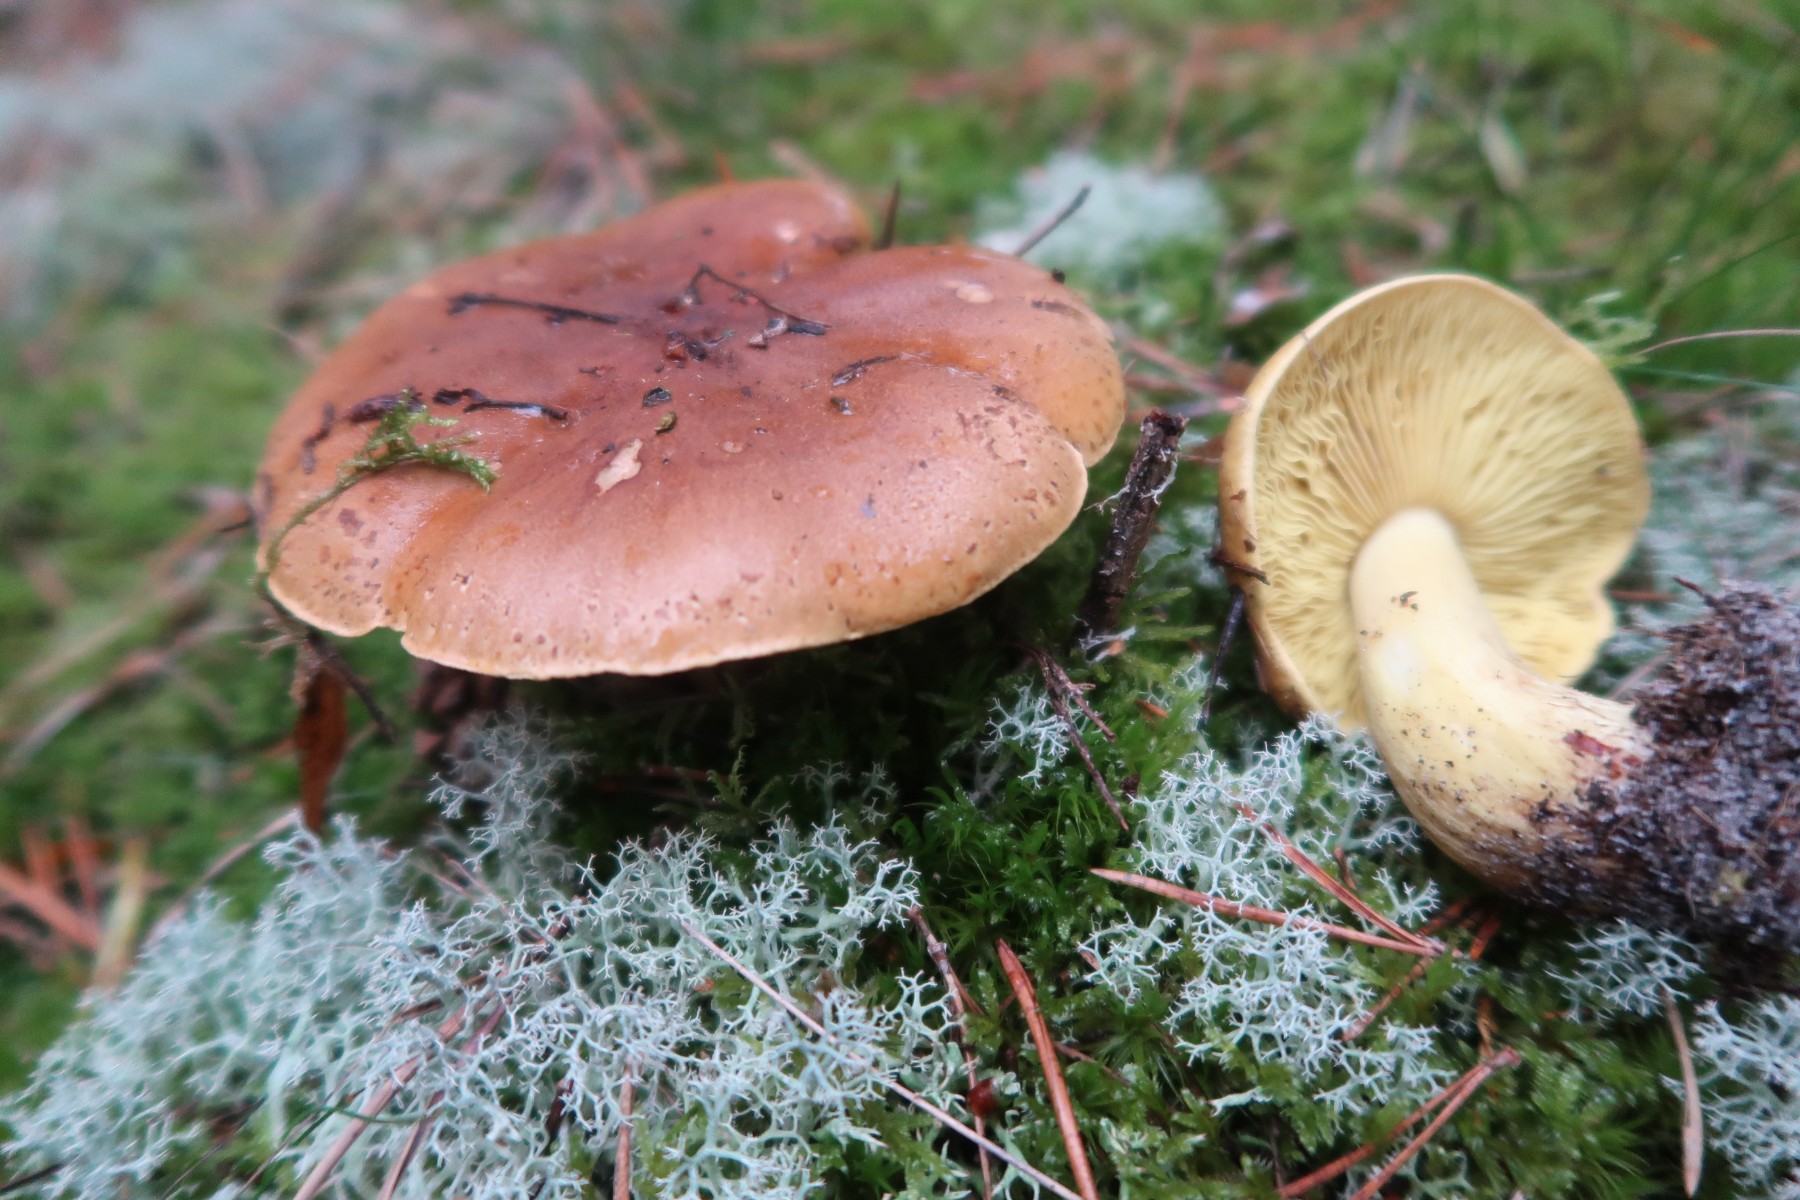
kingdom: Fungi
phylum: Basidiomycota
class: Agaricomycetes
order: Agaricales
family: Tricholomataceae
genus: Tricholoma
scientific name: Tricholoma equestre
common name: ægte ridderhat
